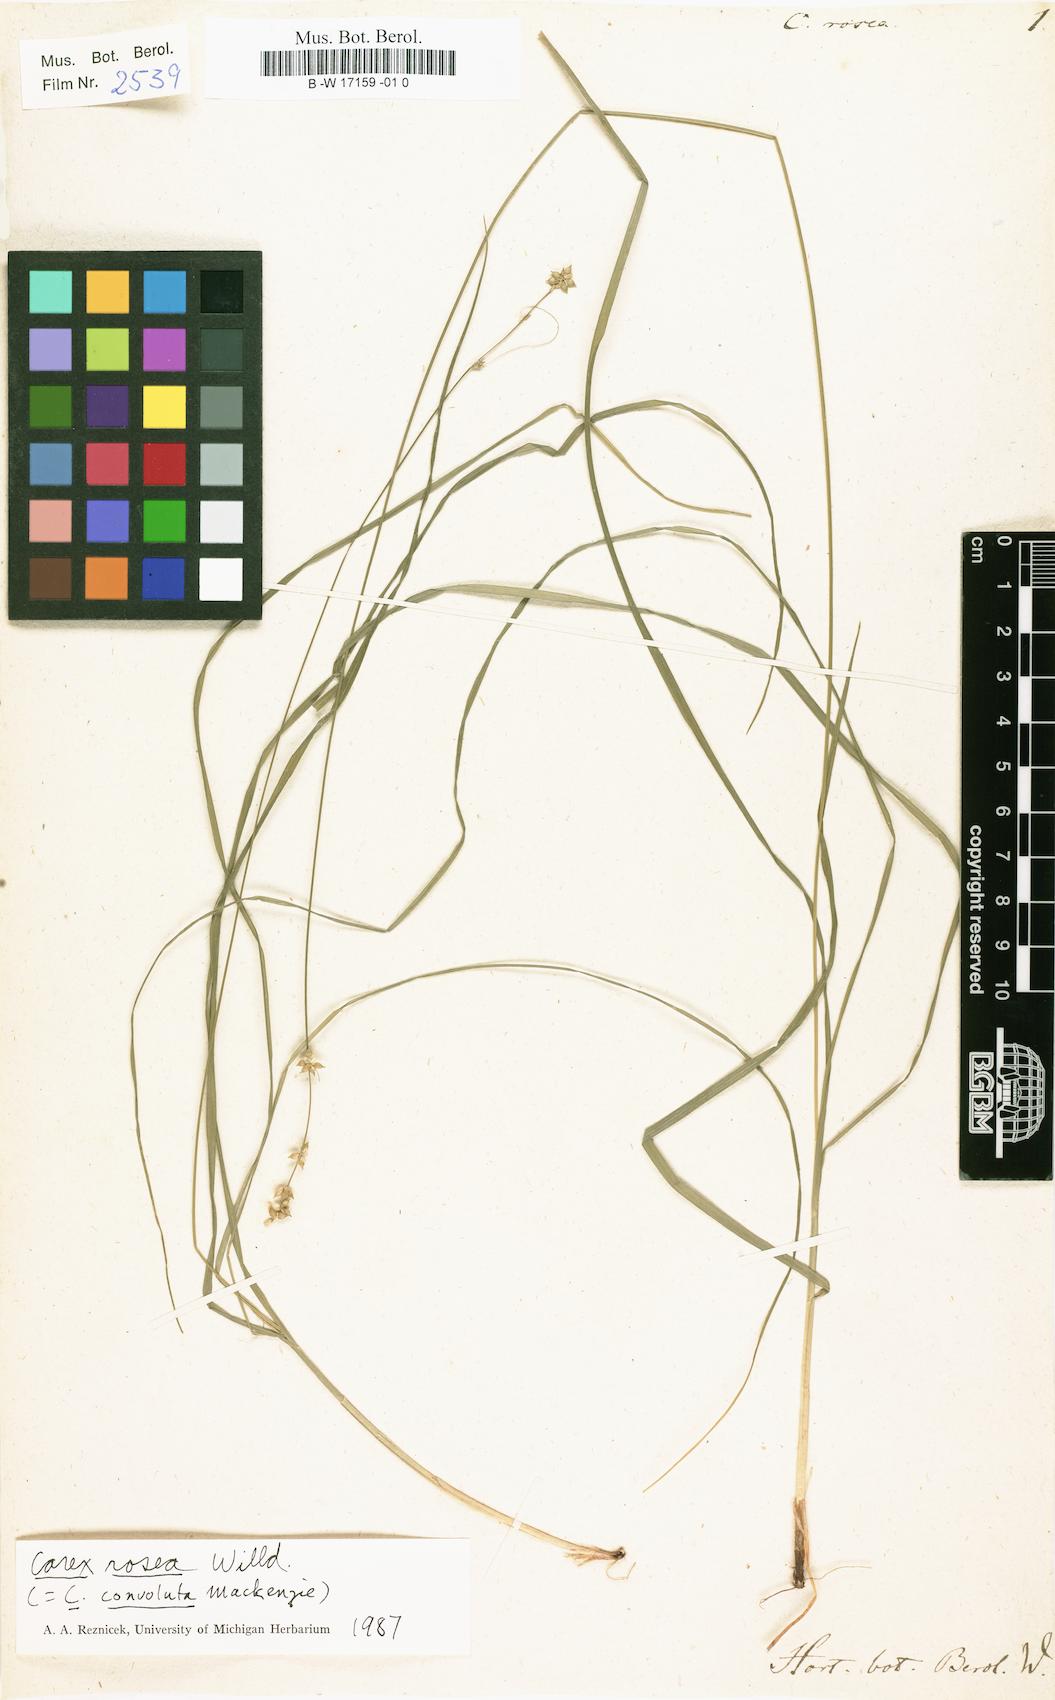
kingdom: Plantae
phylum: Tracheophyta
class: Liliopsida
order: Poales
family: Cyperaceae
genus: Carex
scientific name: Carex rosea
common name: Curly-styled wood sedge
